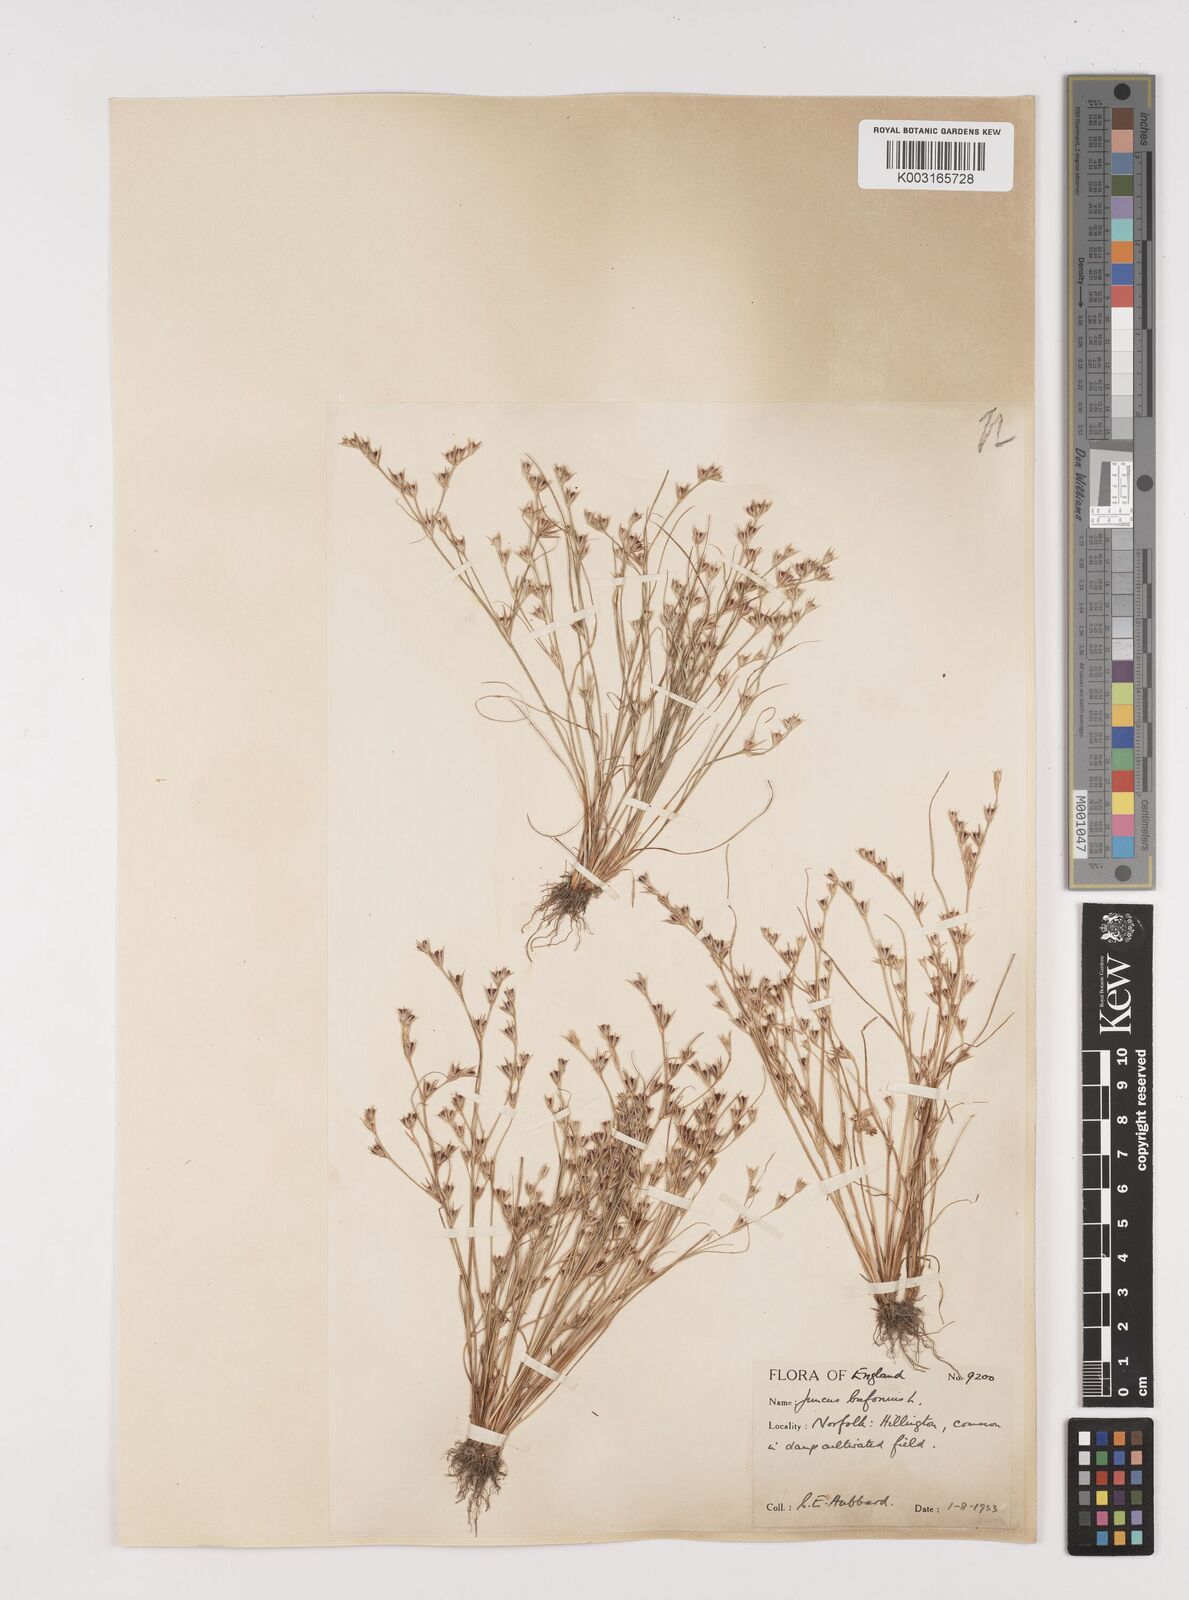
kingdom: Plantae
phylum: Tracheophyta
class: Liliopsida
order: Poales
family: Juncaceae
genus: Juncus
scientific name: Juncus bufonius
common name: Toad rush
